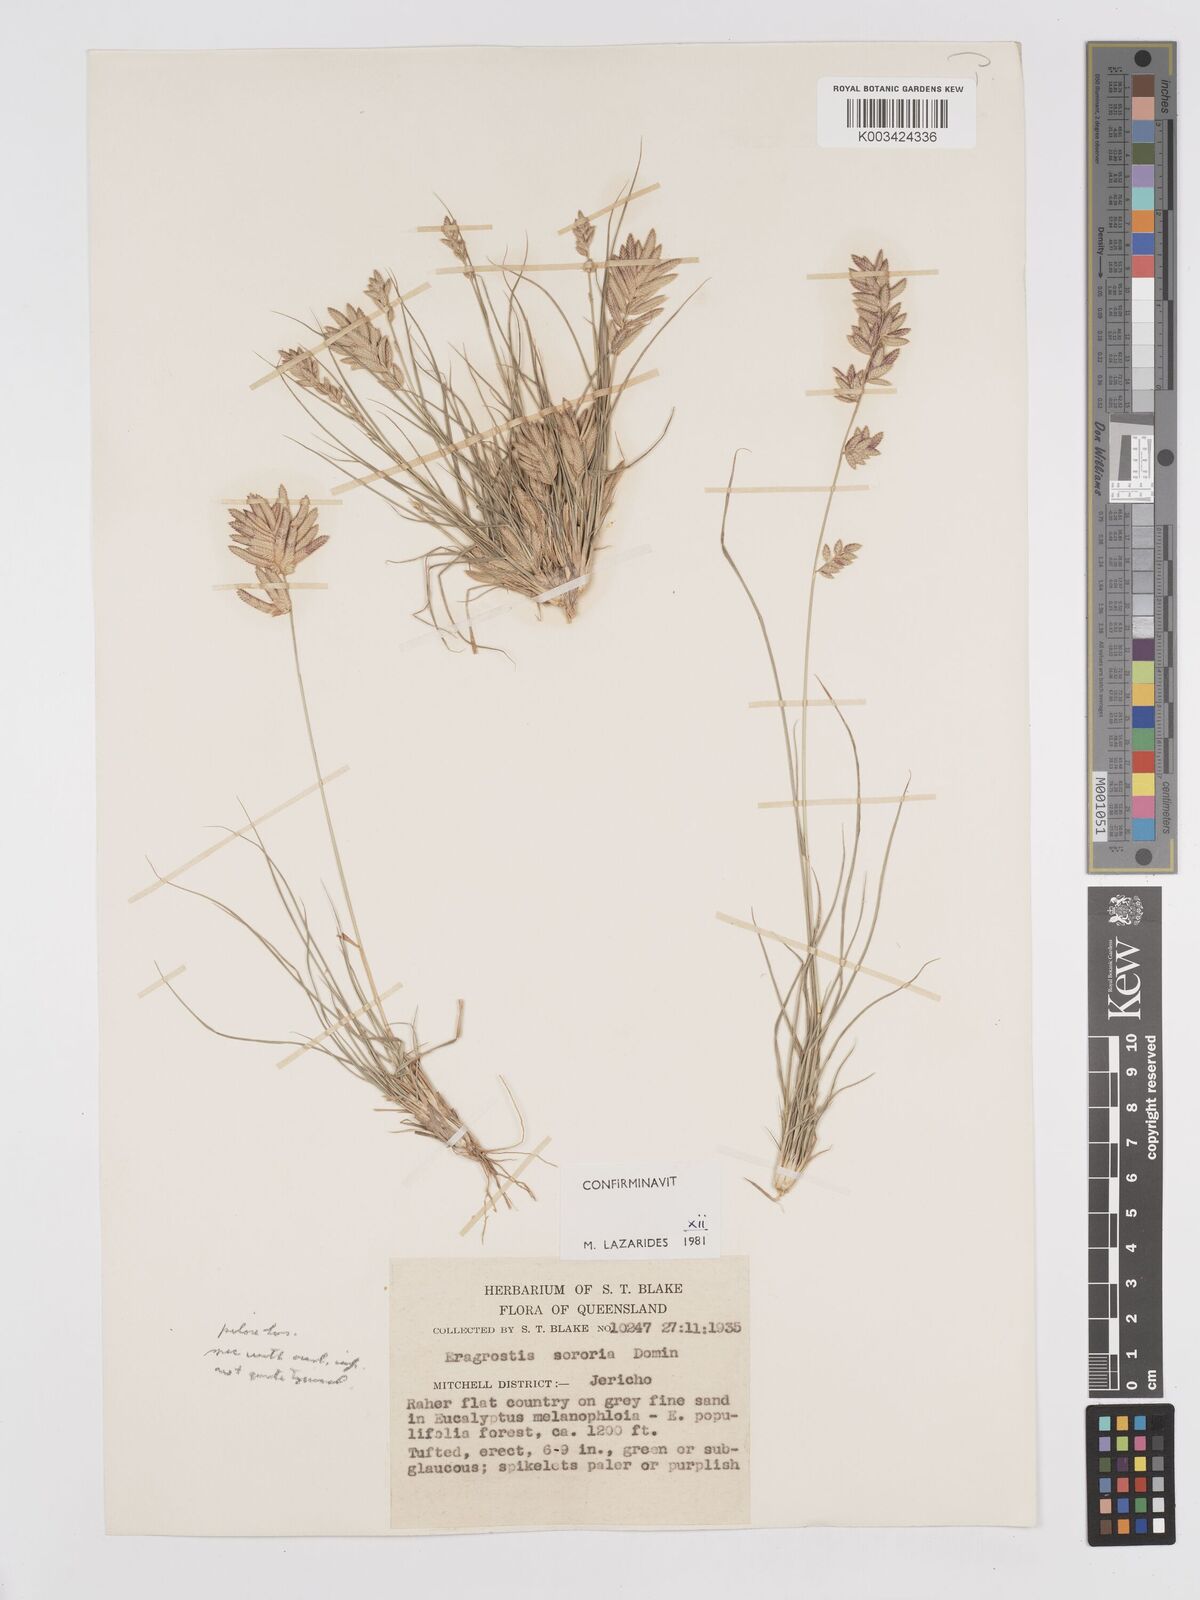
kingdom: Plantae
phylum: Tracheophyta
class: Liliopsida
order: Poales
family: Poaceae
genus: Eragrostis
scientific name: Eragrostis sororia
